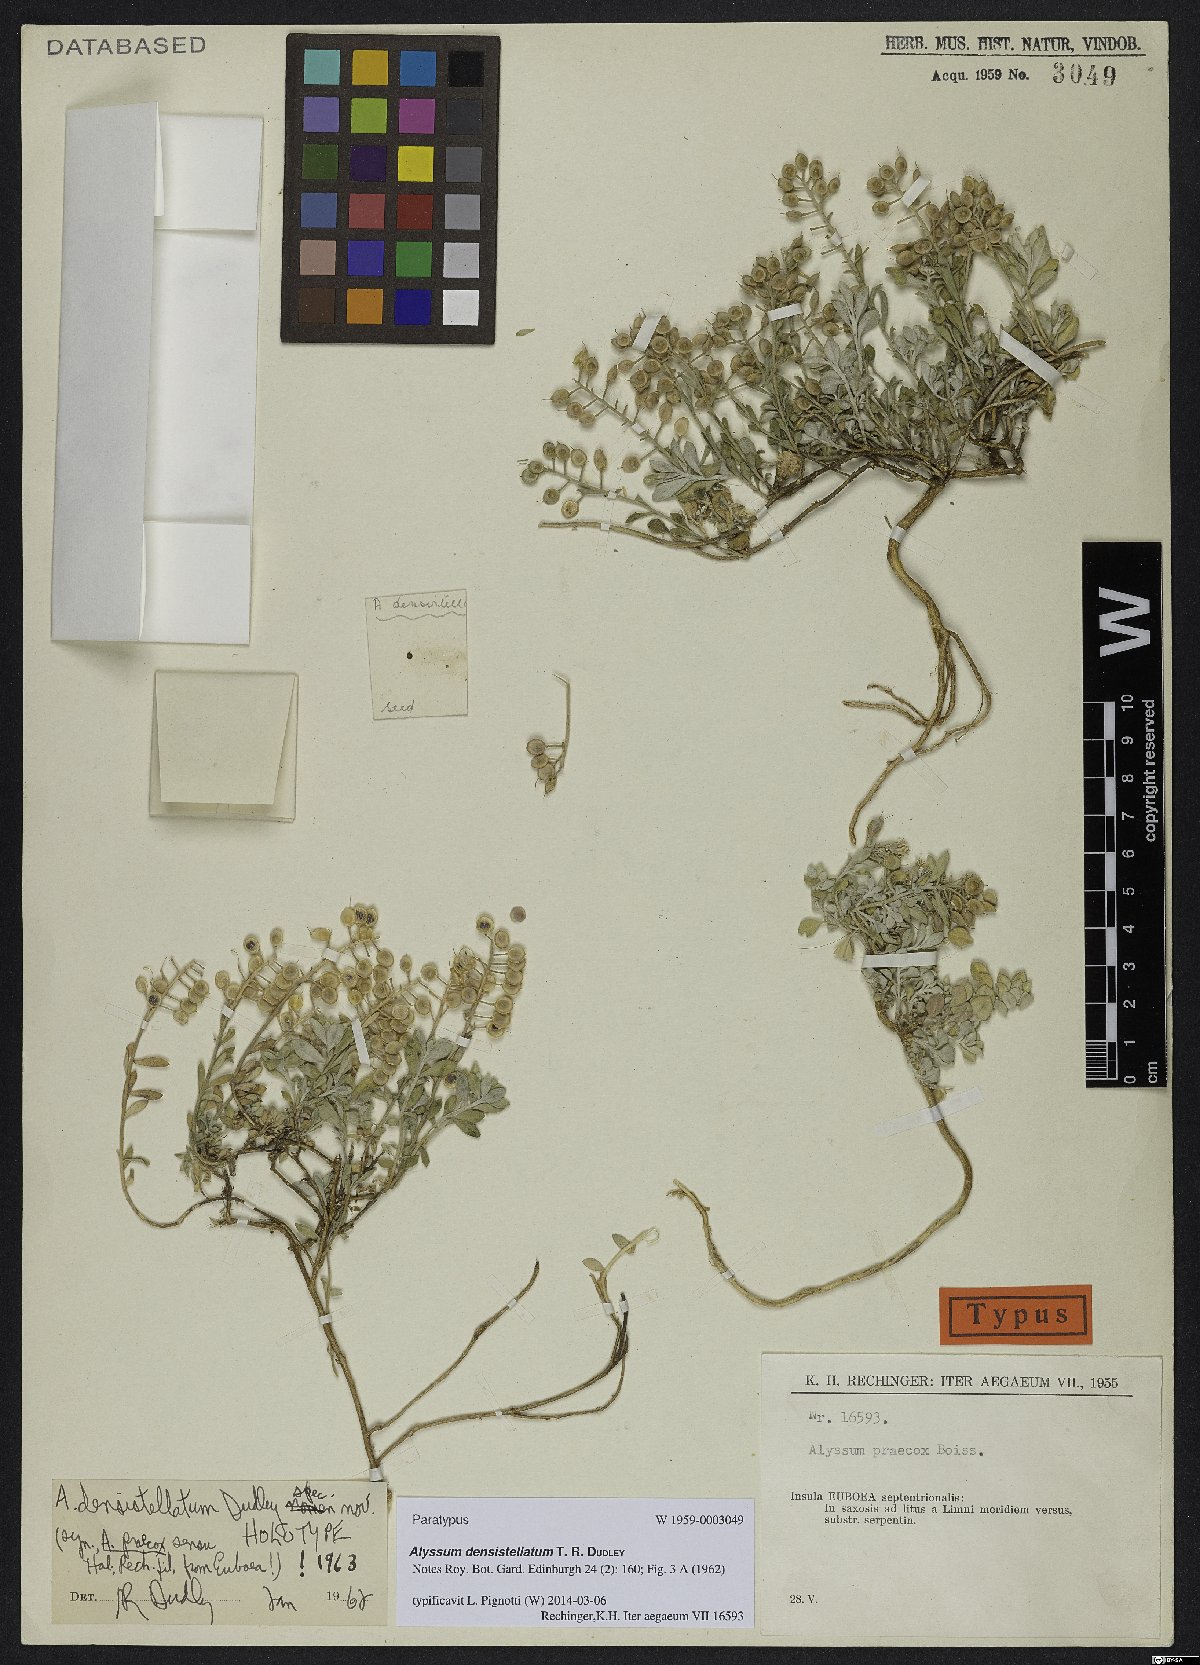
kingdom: Plantae
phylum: Tracheophyta
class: Magnoliopsida
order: Brassicales
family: Brassicaceae
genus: Alyssum
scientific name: Alyssum densistellatum
